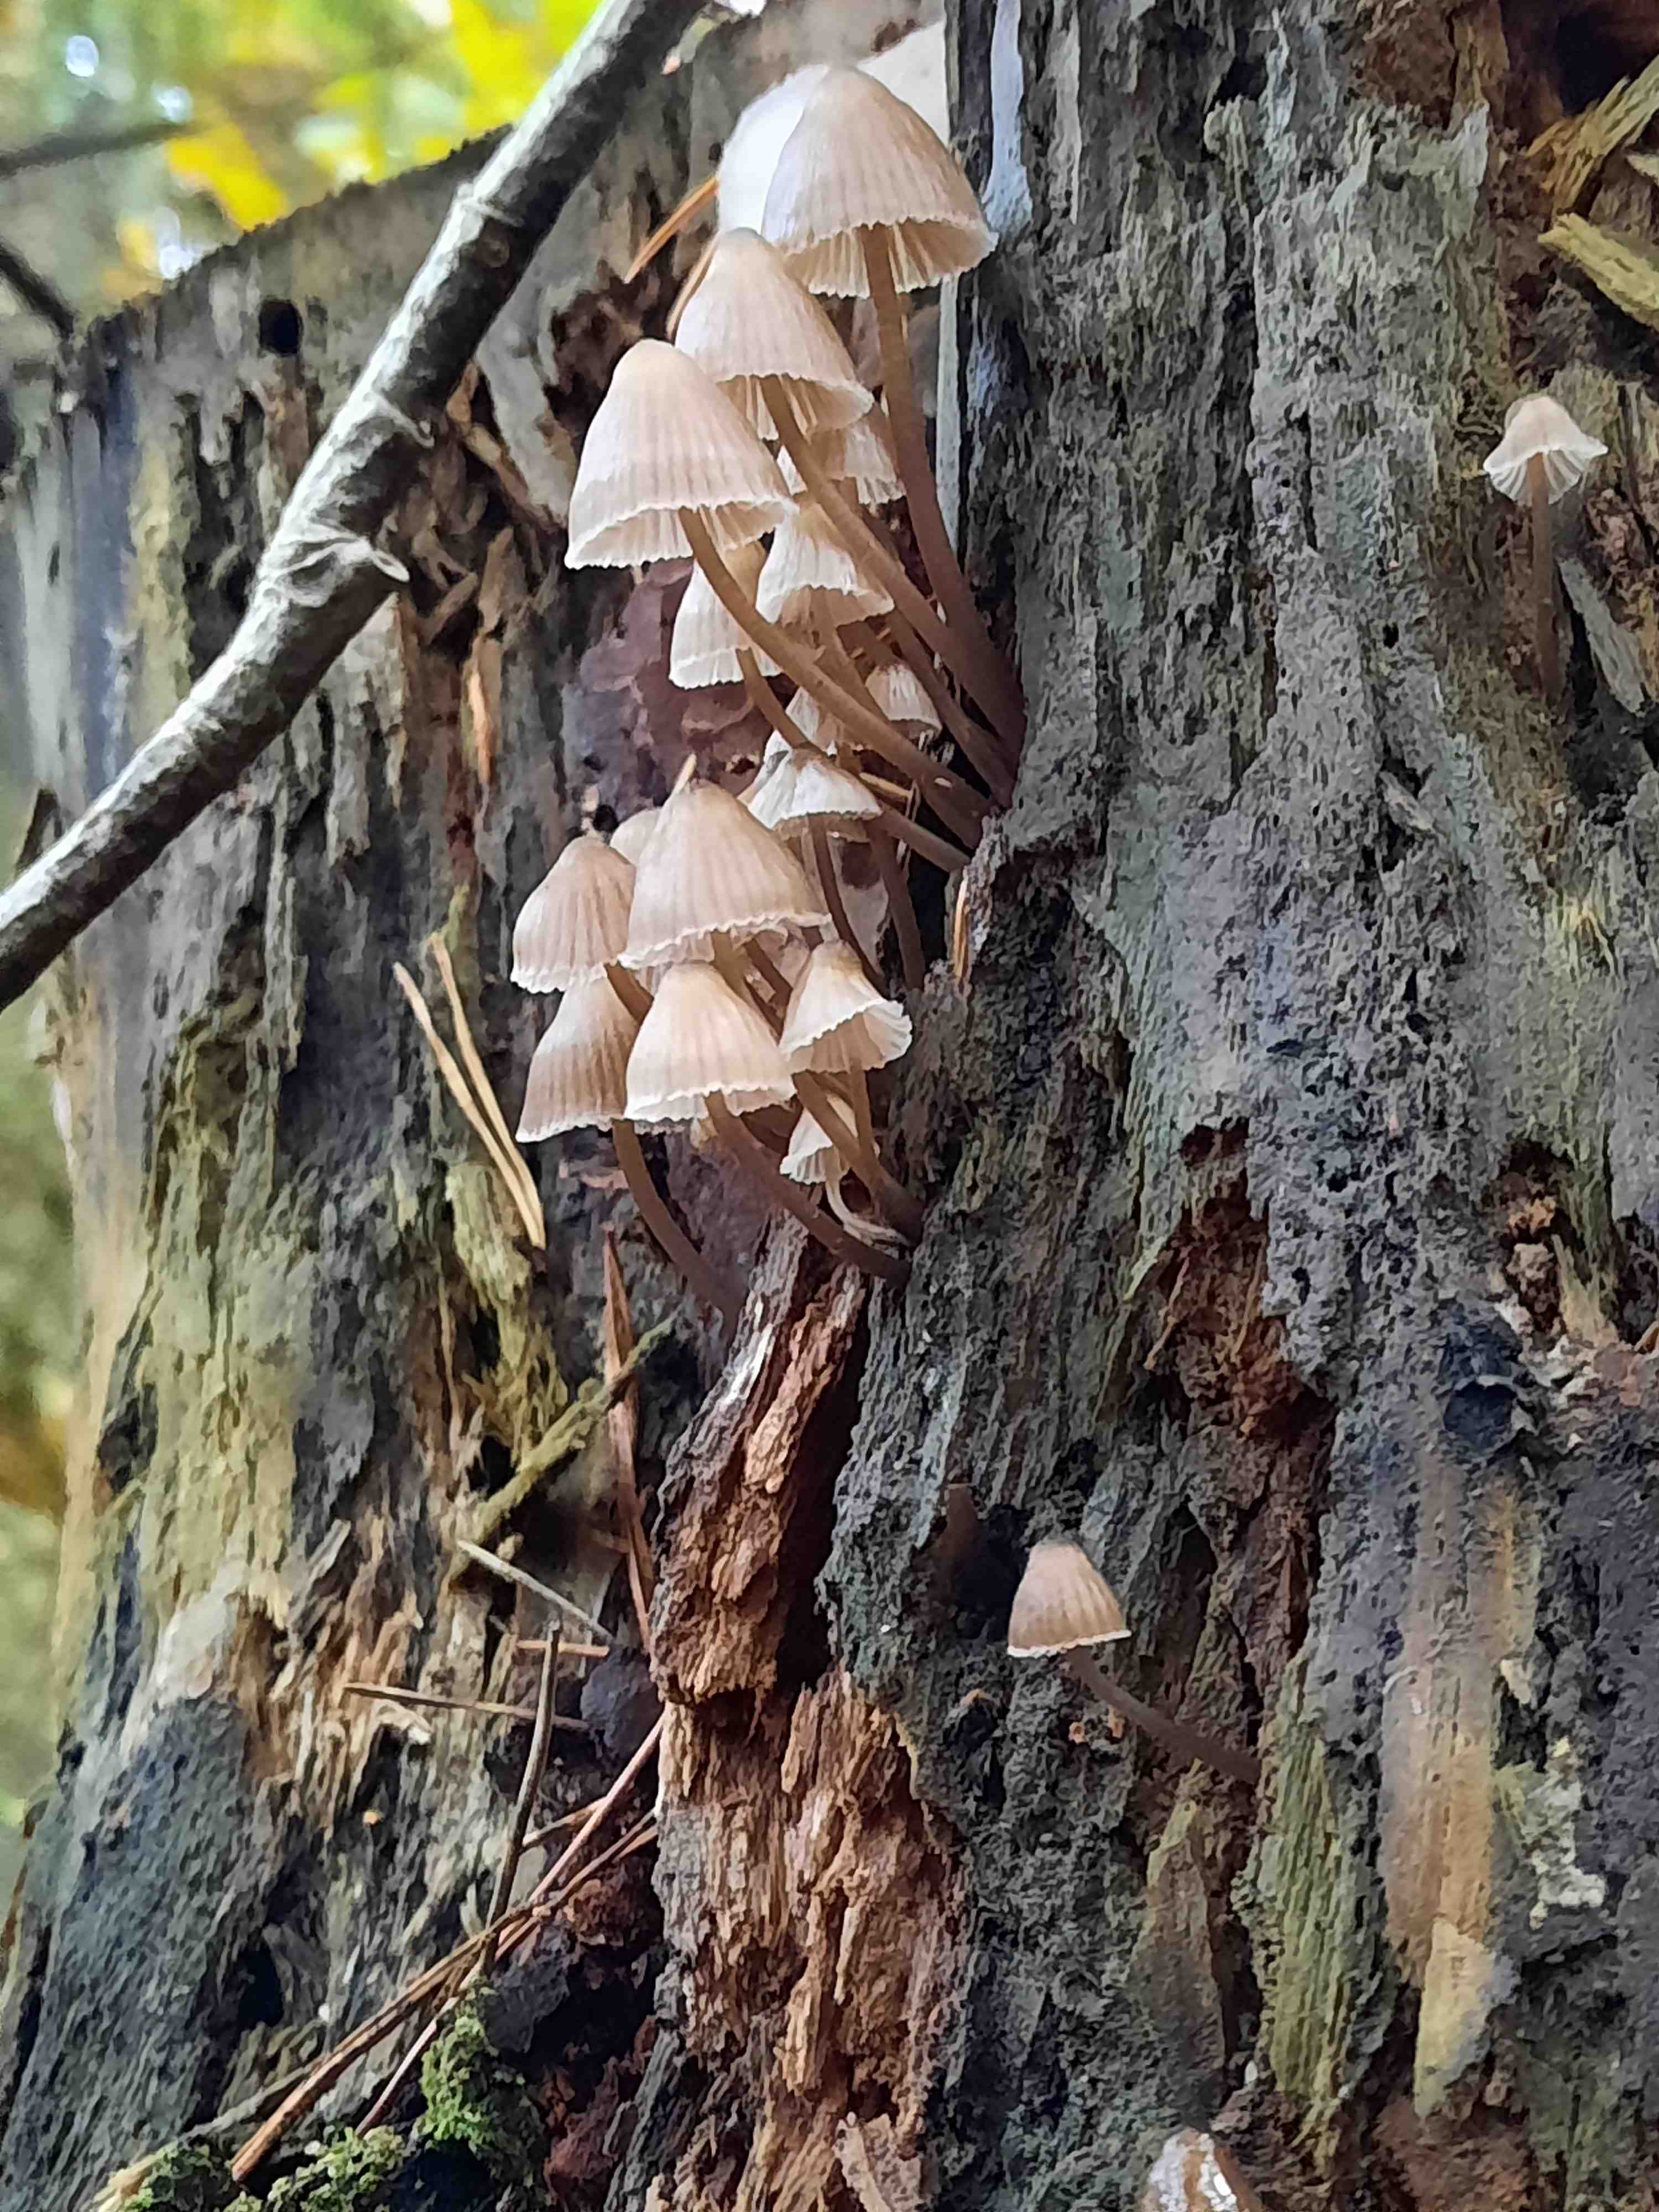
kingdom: Fungi
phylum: Basidiomycota
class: Agaricomycetes
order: Agaricales
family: Mycenaceae
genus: Mycena
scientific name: Mycena stipata
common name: stinkende huesvamp
